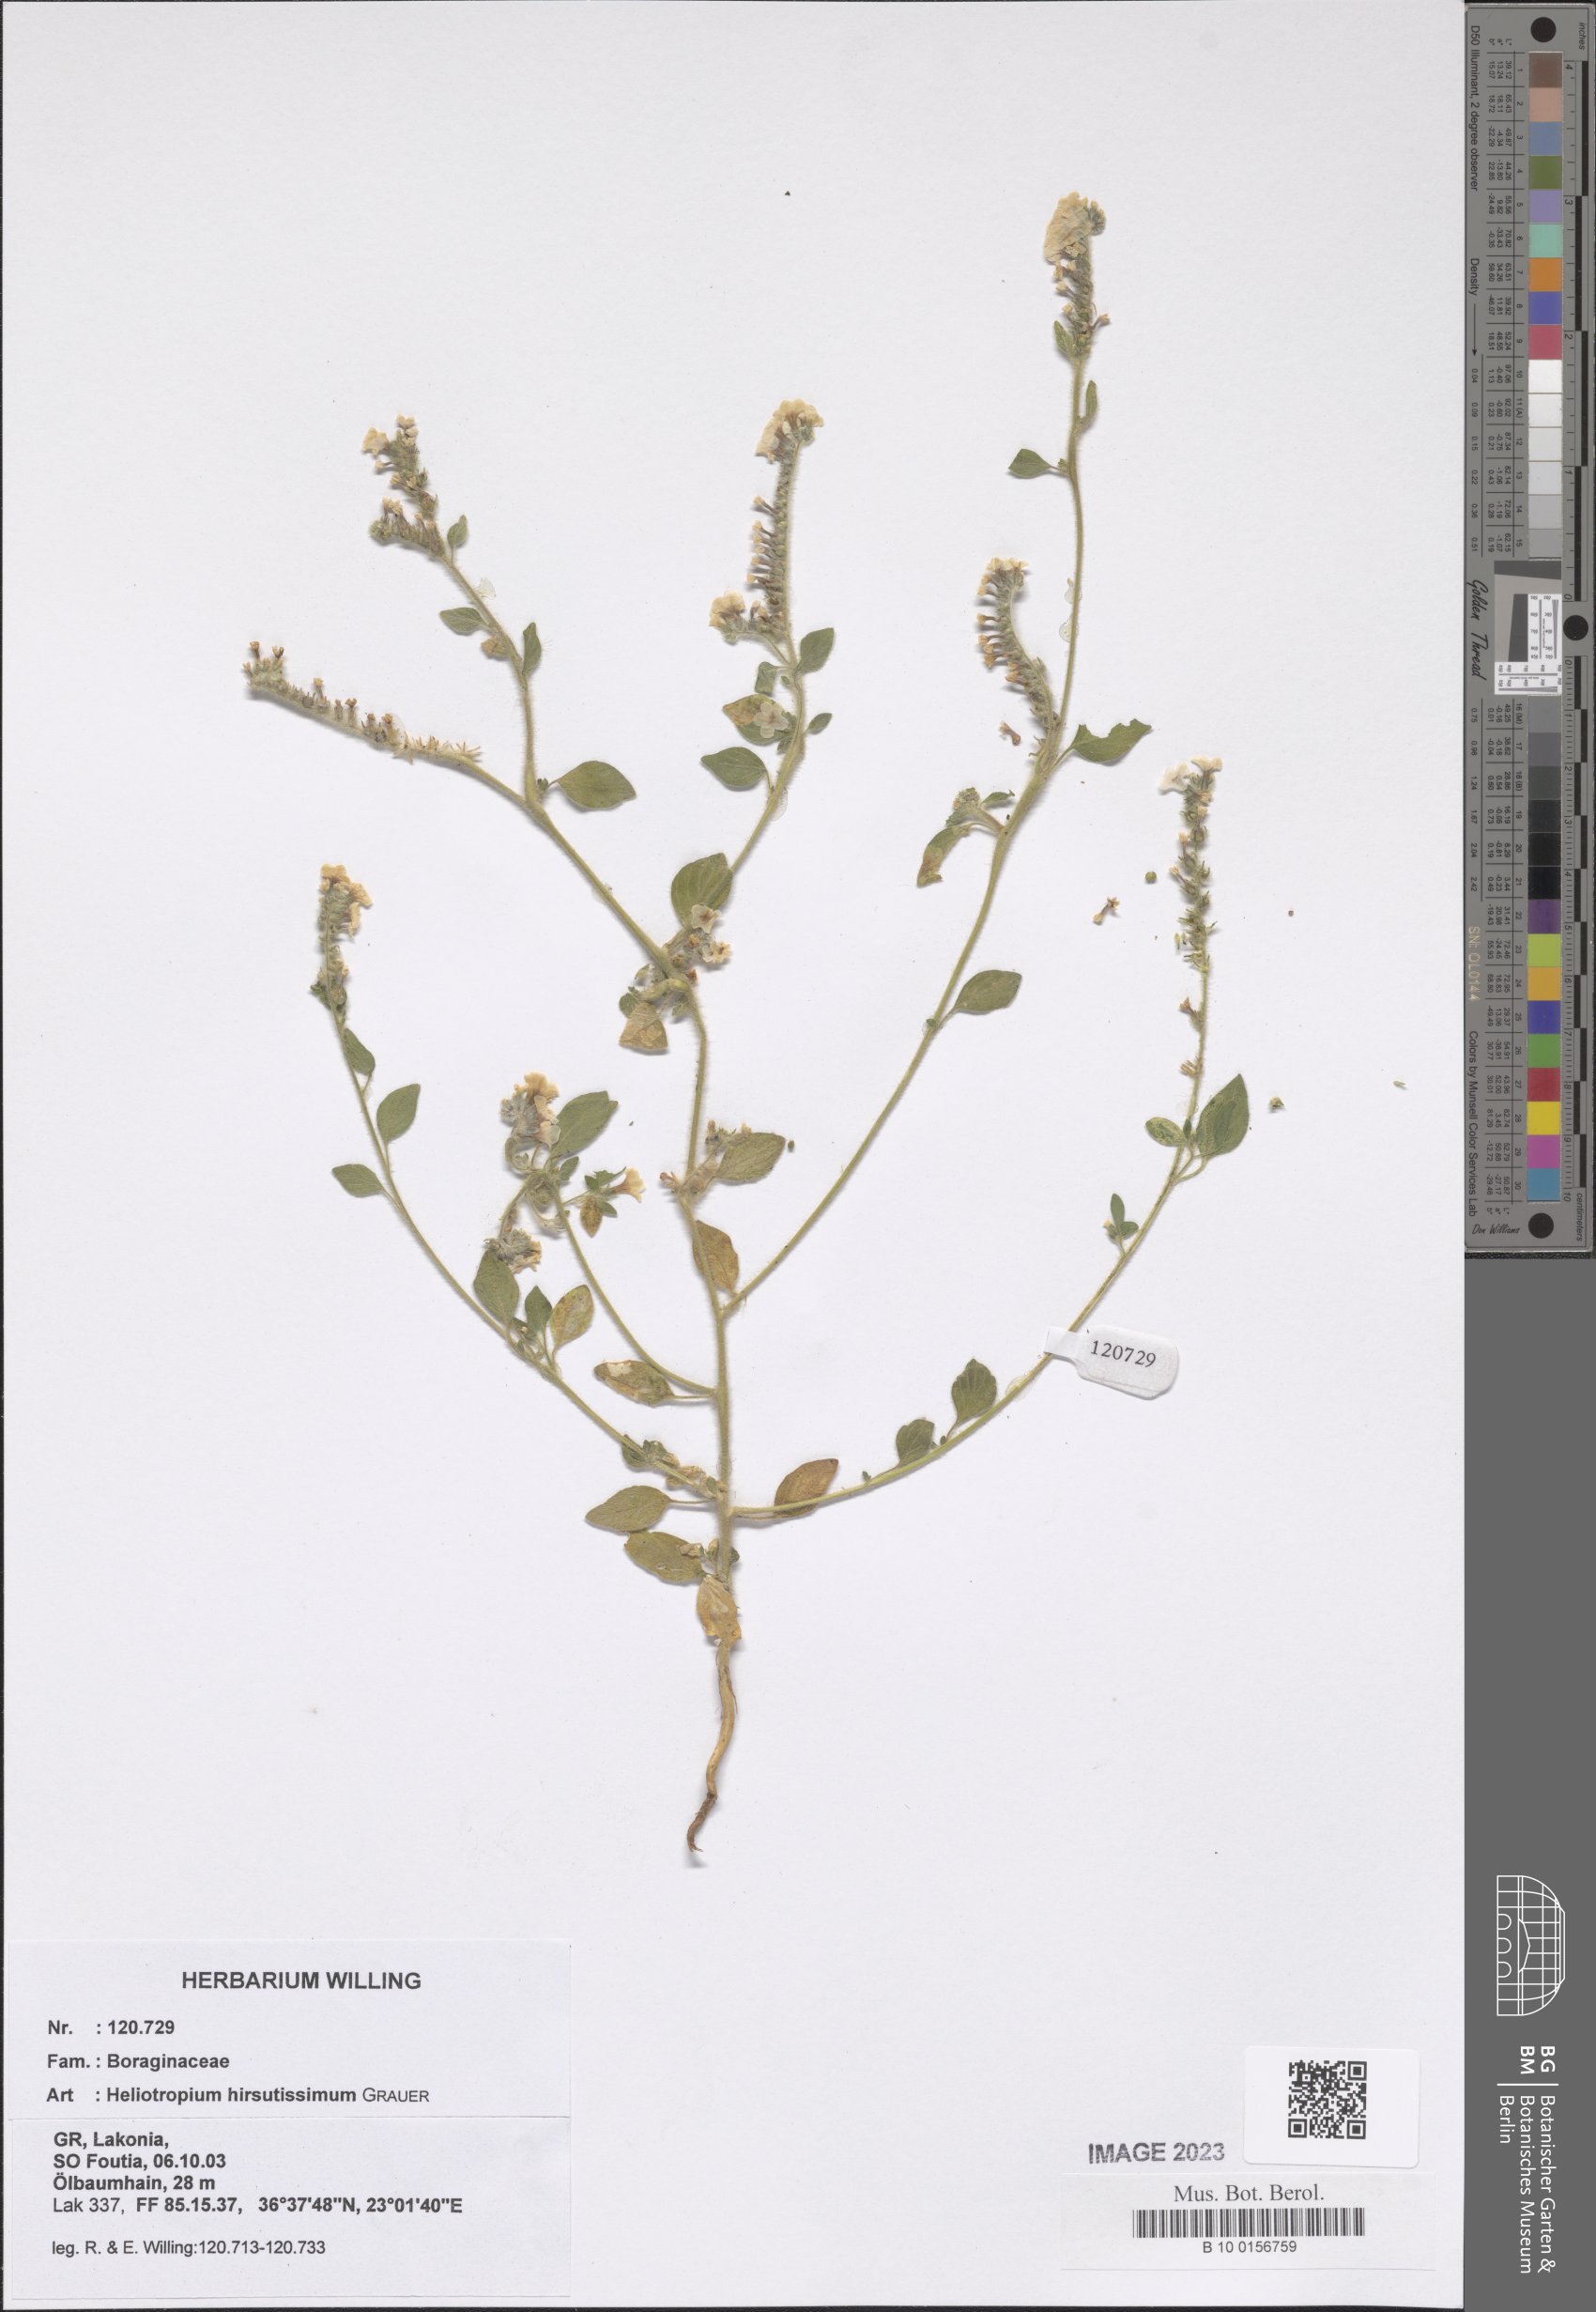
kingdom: Plantae
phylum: Tracheophyta
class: Magnoliopsida
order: Boraginales
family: Heliotropiaceae
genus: Heliotropium
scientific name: Heliotropium hirsutissimum
